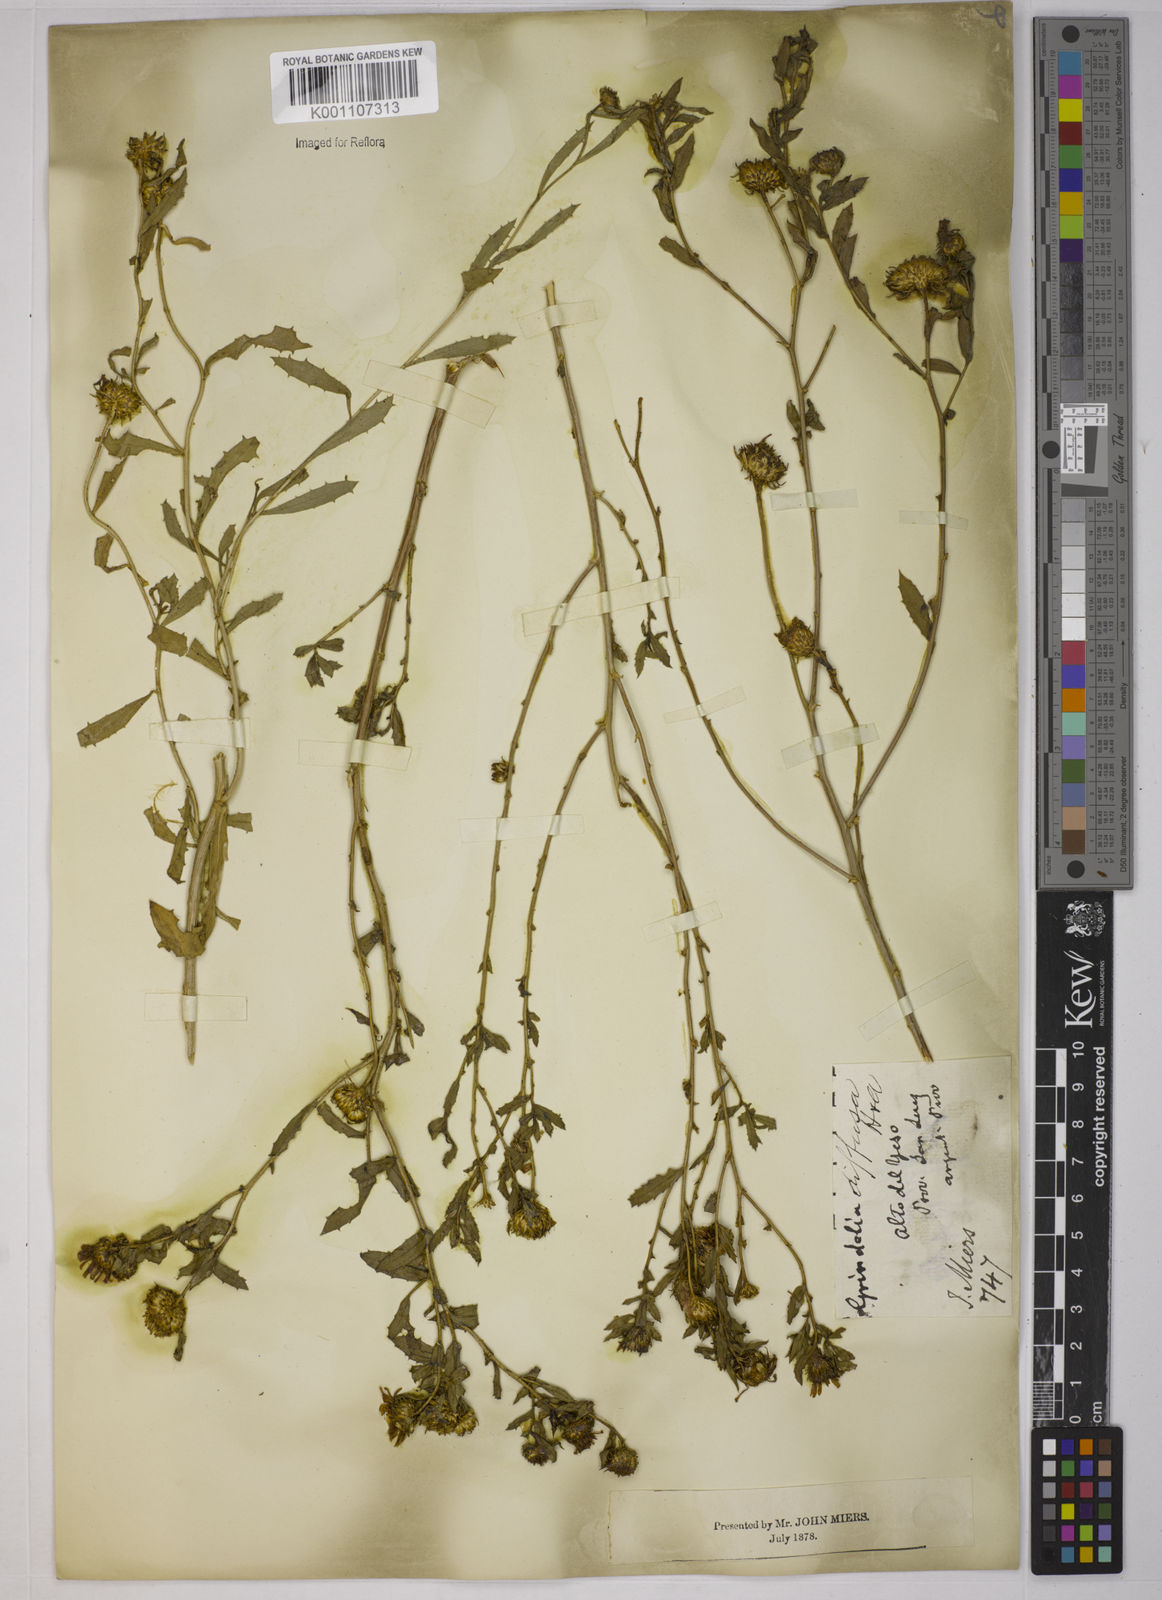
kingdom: Plantae
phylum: Tracheophyta
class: Magnoliopsida
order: Asterales
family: Asteraceae
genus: Grindelia
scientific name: Grindelia pulchella
